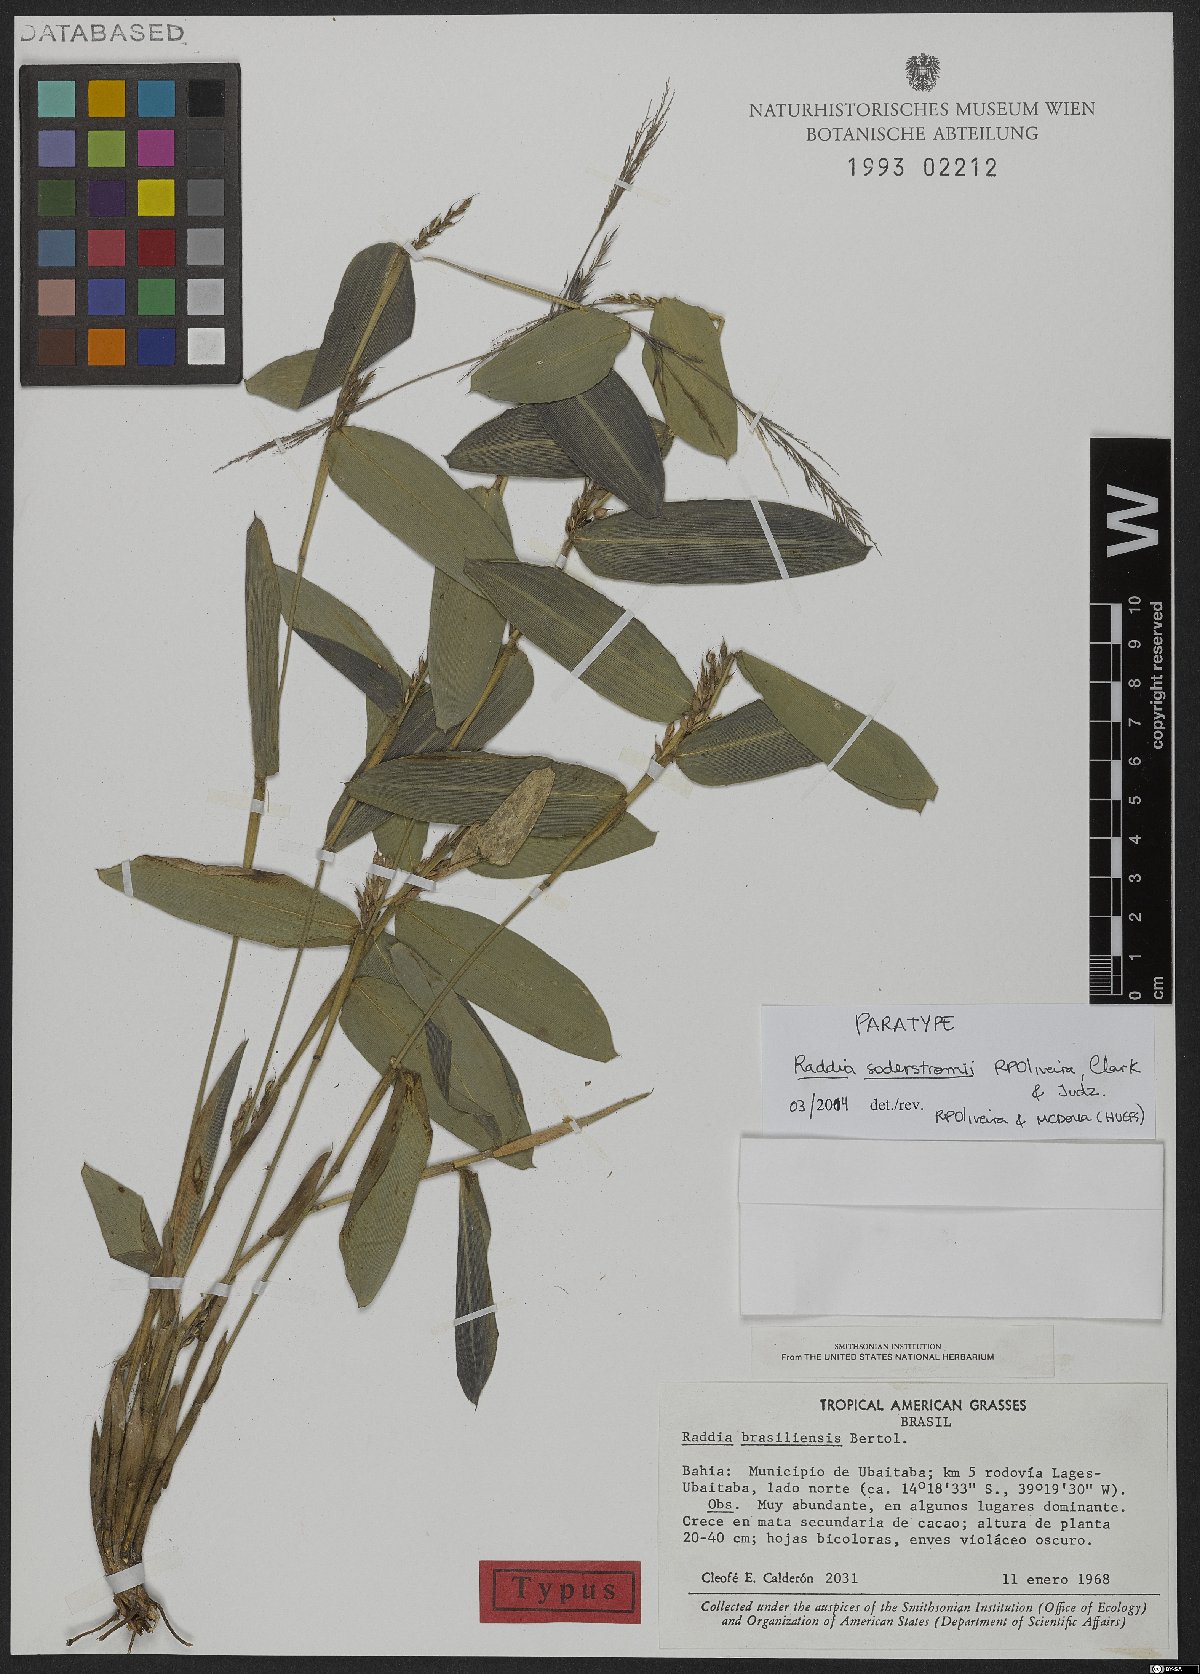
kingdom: Plantae
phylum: Tracheophyta
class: Liliopsida
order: Poales
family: Poaceae
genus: Raddia
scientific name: Raddia soderstromii
